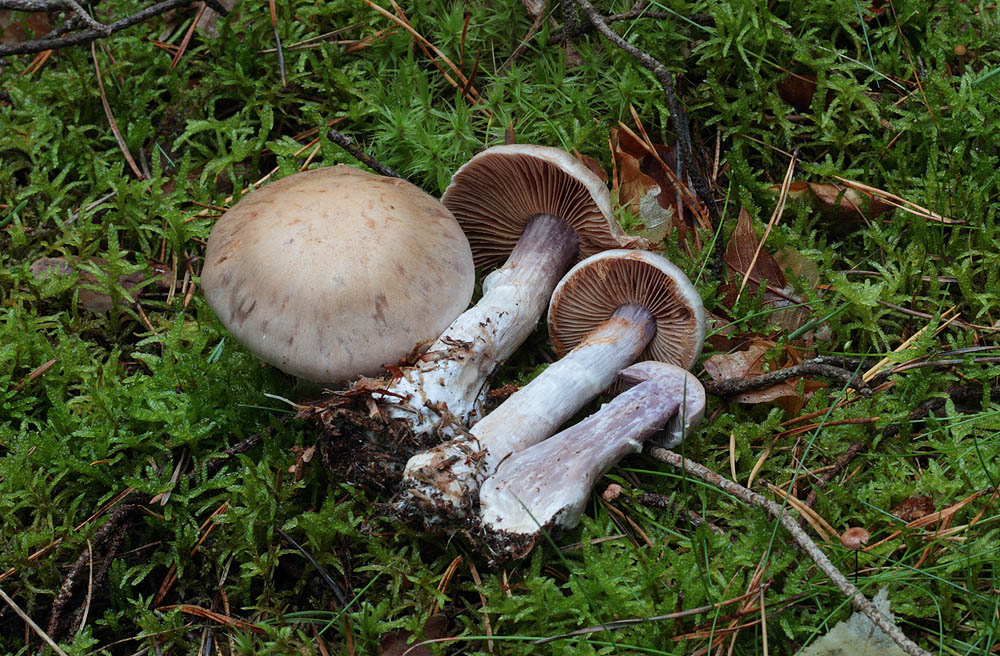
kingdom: Fungi
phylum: Basidiomycota
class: Agaricomycetes
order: Agaricales
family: Cortinariaceae
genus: Cortinarius
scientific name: Cortinarius quarciticus
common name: kvarts-slørhat
